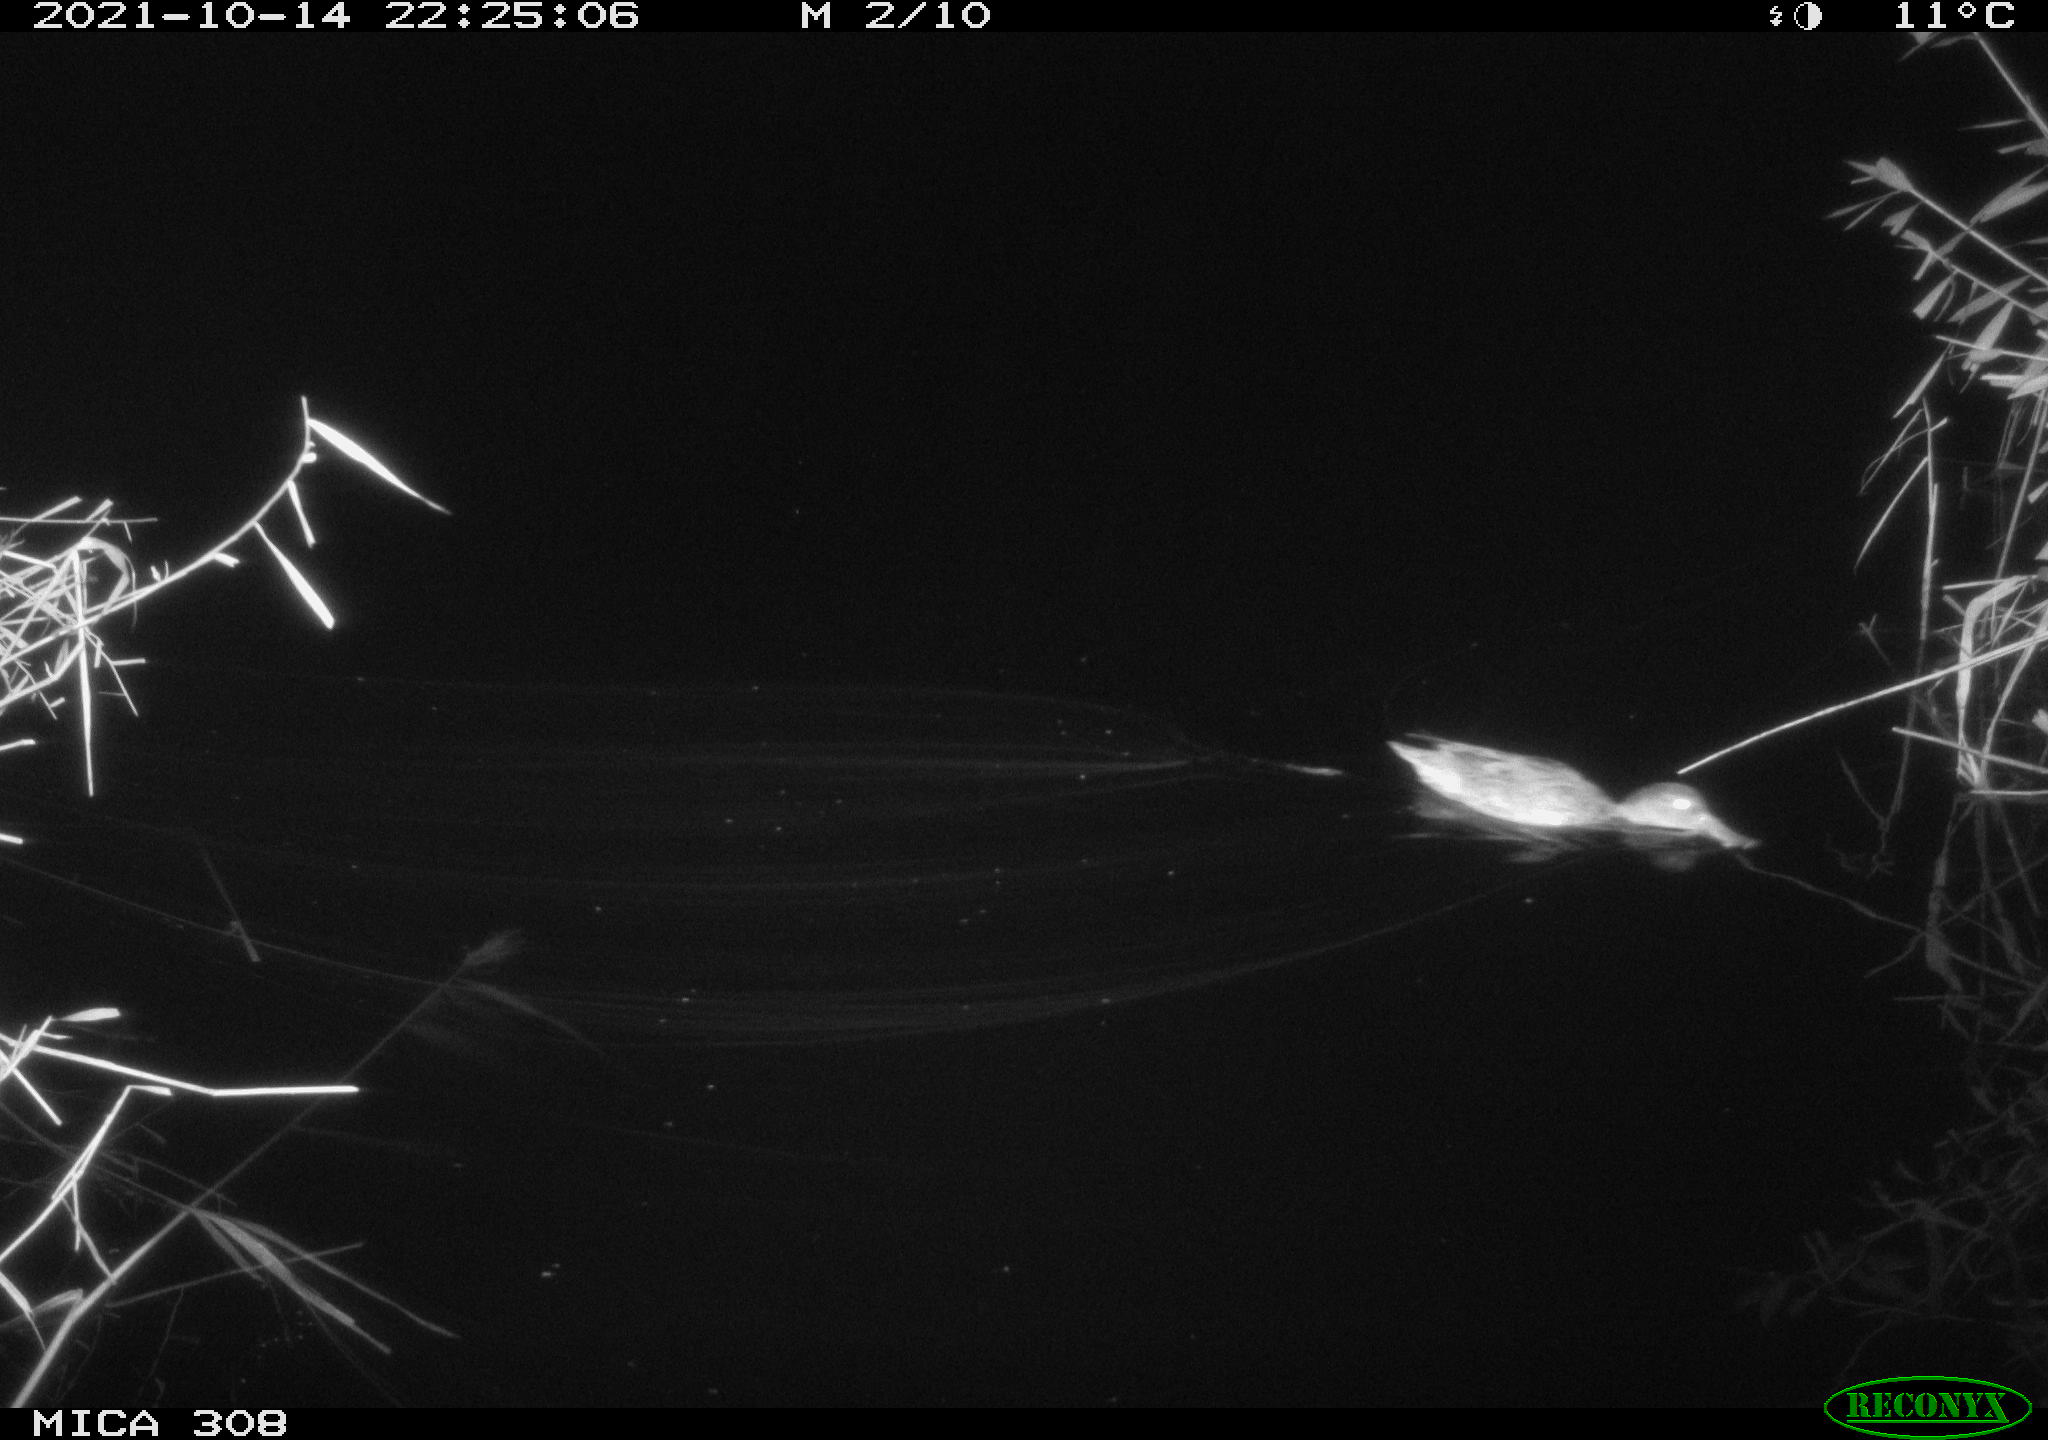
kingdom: Animalia
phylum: Chordata
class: Aves
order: Anseriformes
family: Anatidae
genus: Spatula
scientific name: Spatula clypeata
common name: Northern shoveler
